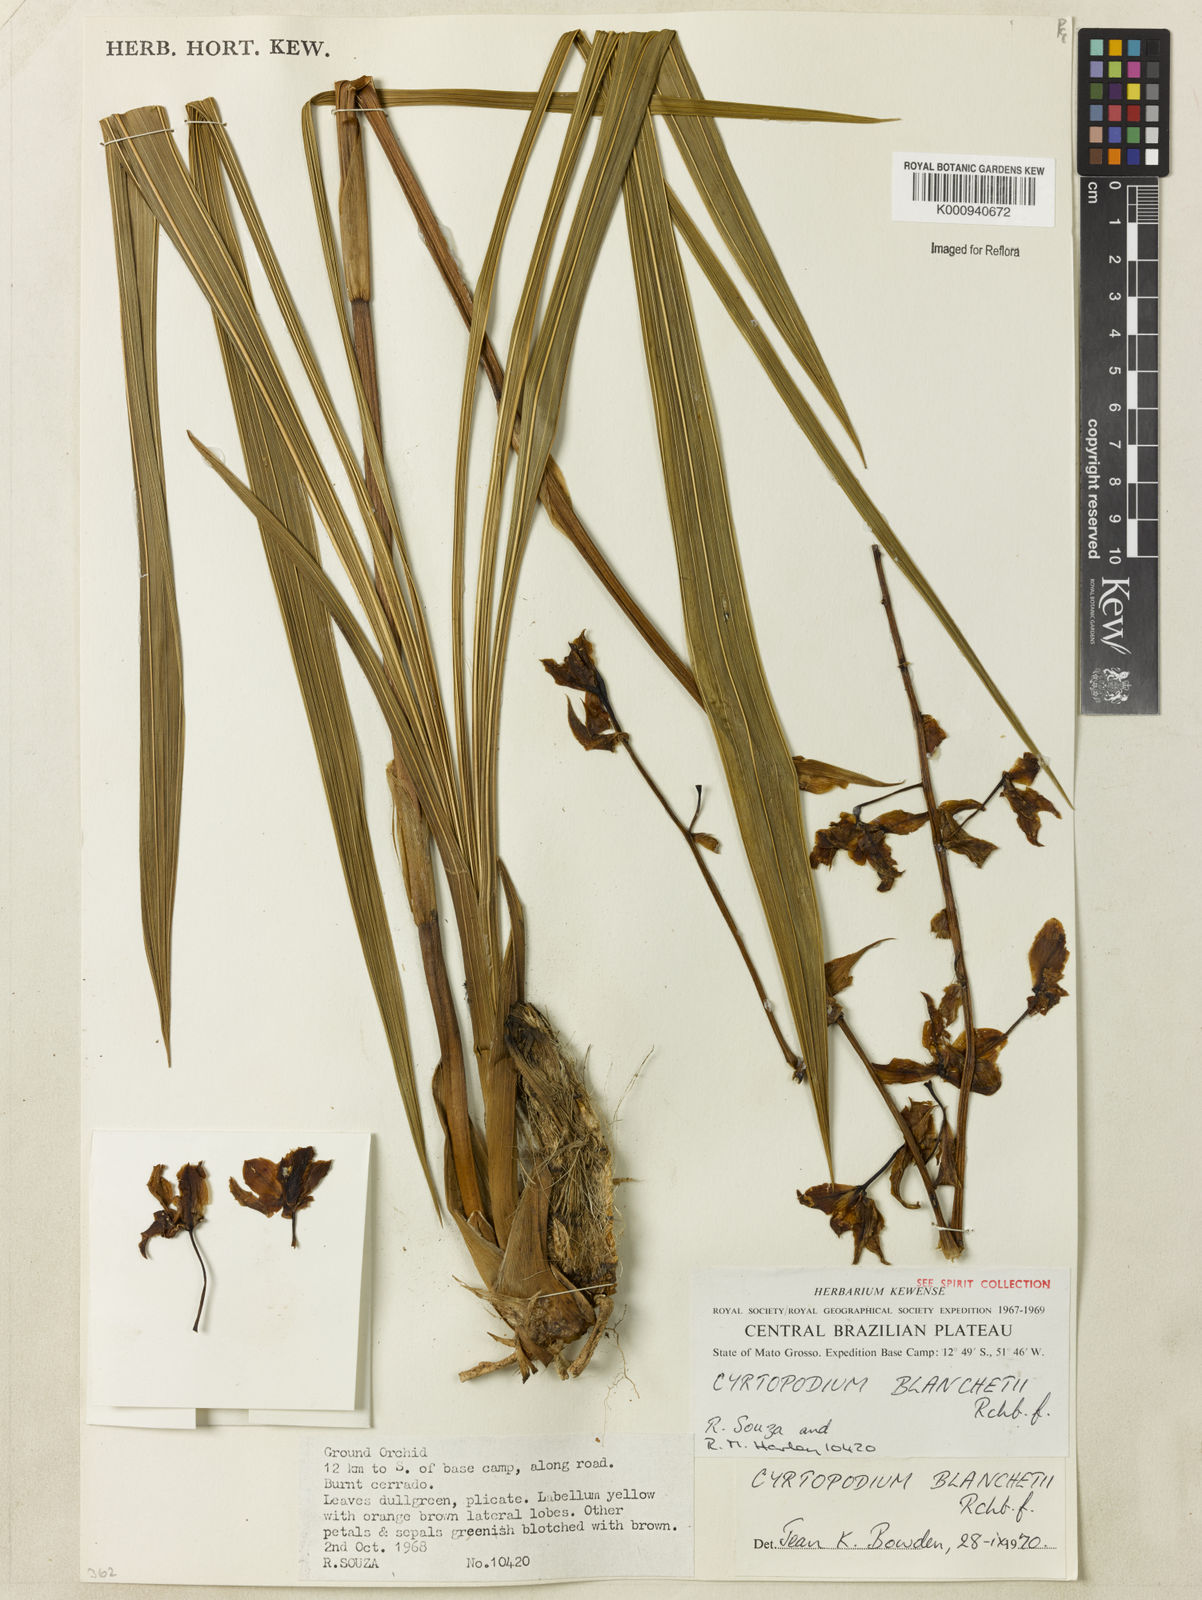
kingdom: Plantae
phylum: Tracheophyta
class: Liliopsida
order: Asparagales
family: Orchidaceae
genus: Cyrtopodium
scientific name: Cyrtopodium blanchetii
